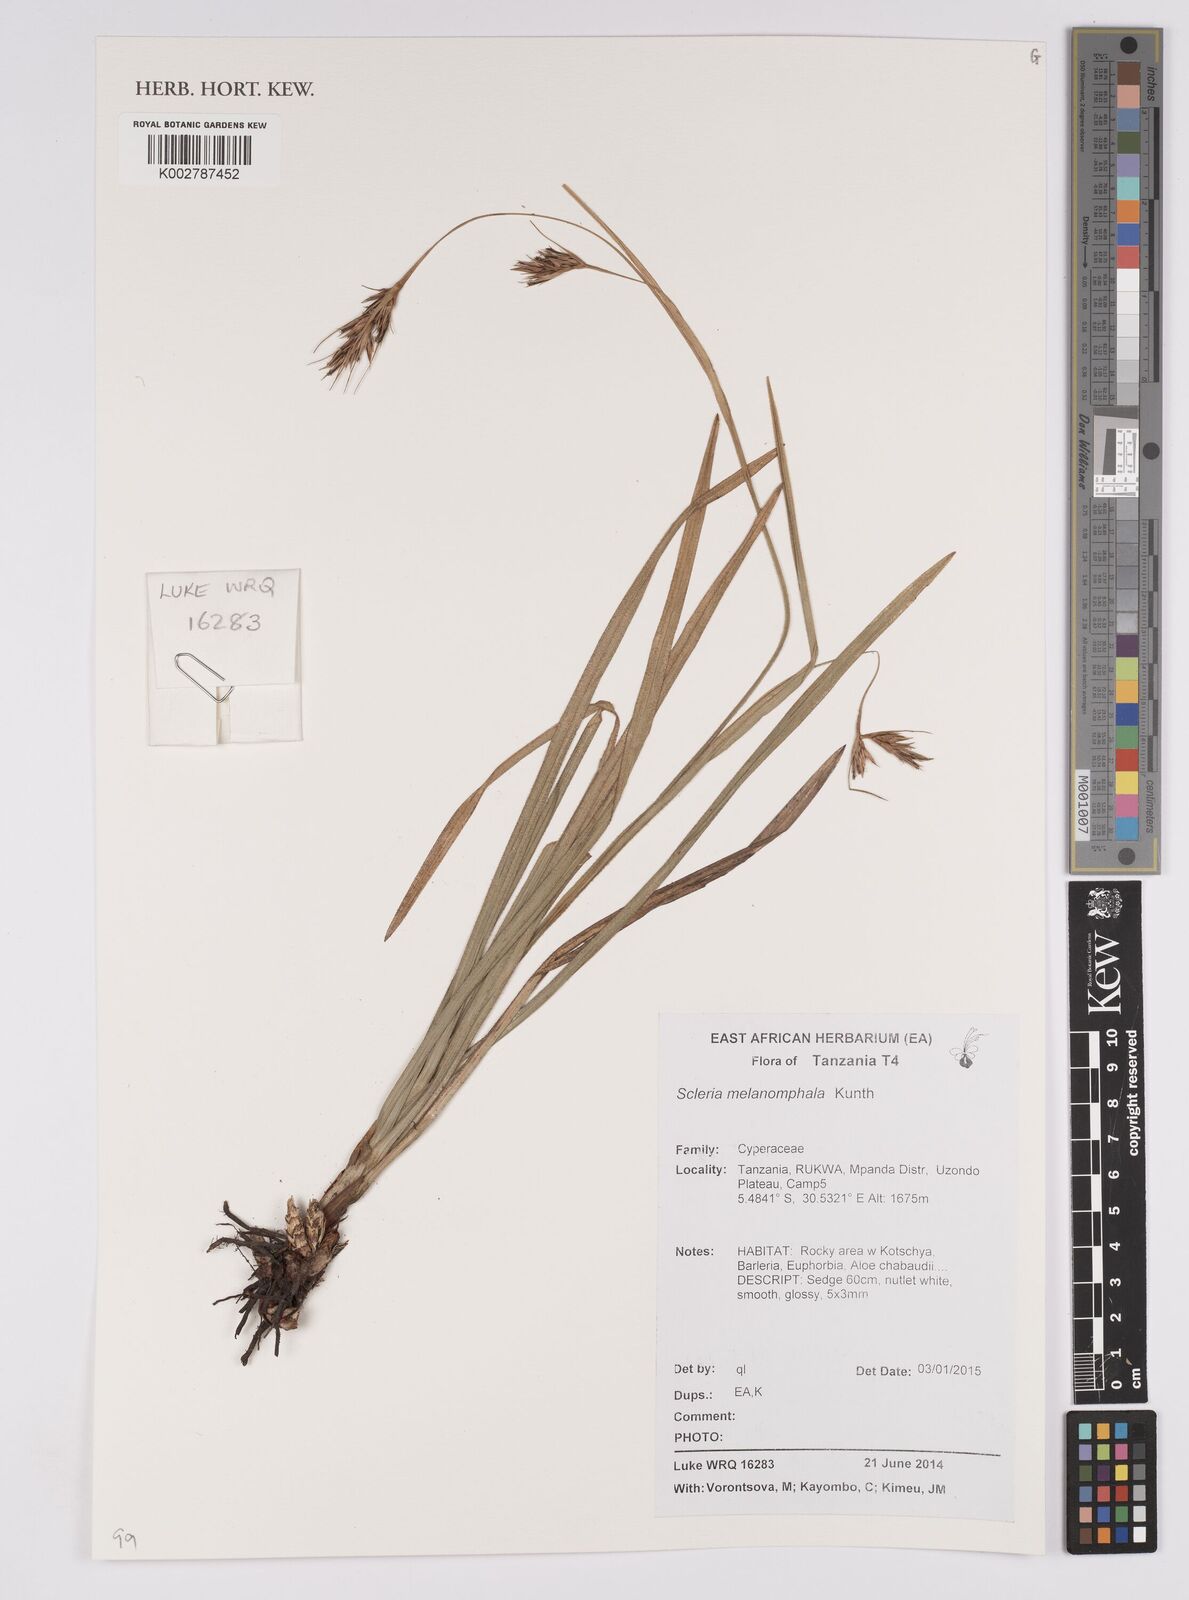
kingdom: Plantae
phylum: Tracheophyta
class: Liliopsida
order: Poales
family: Cyperaceae
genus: Scleria
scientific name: Scleria melanomphala
